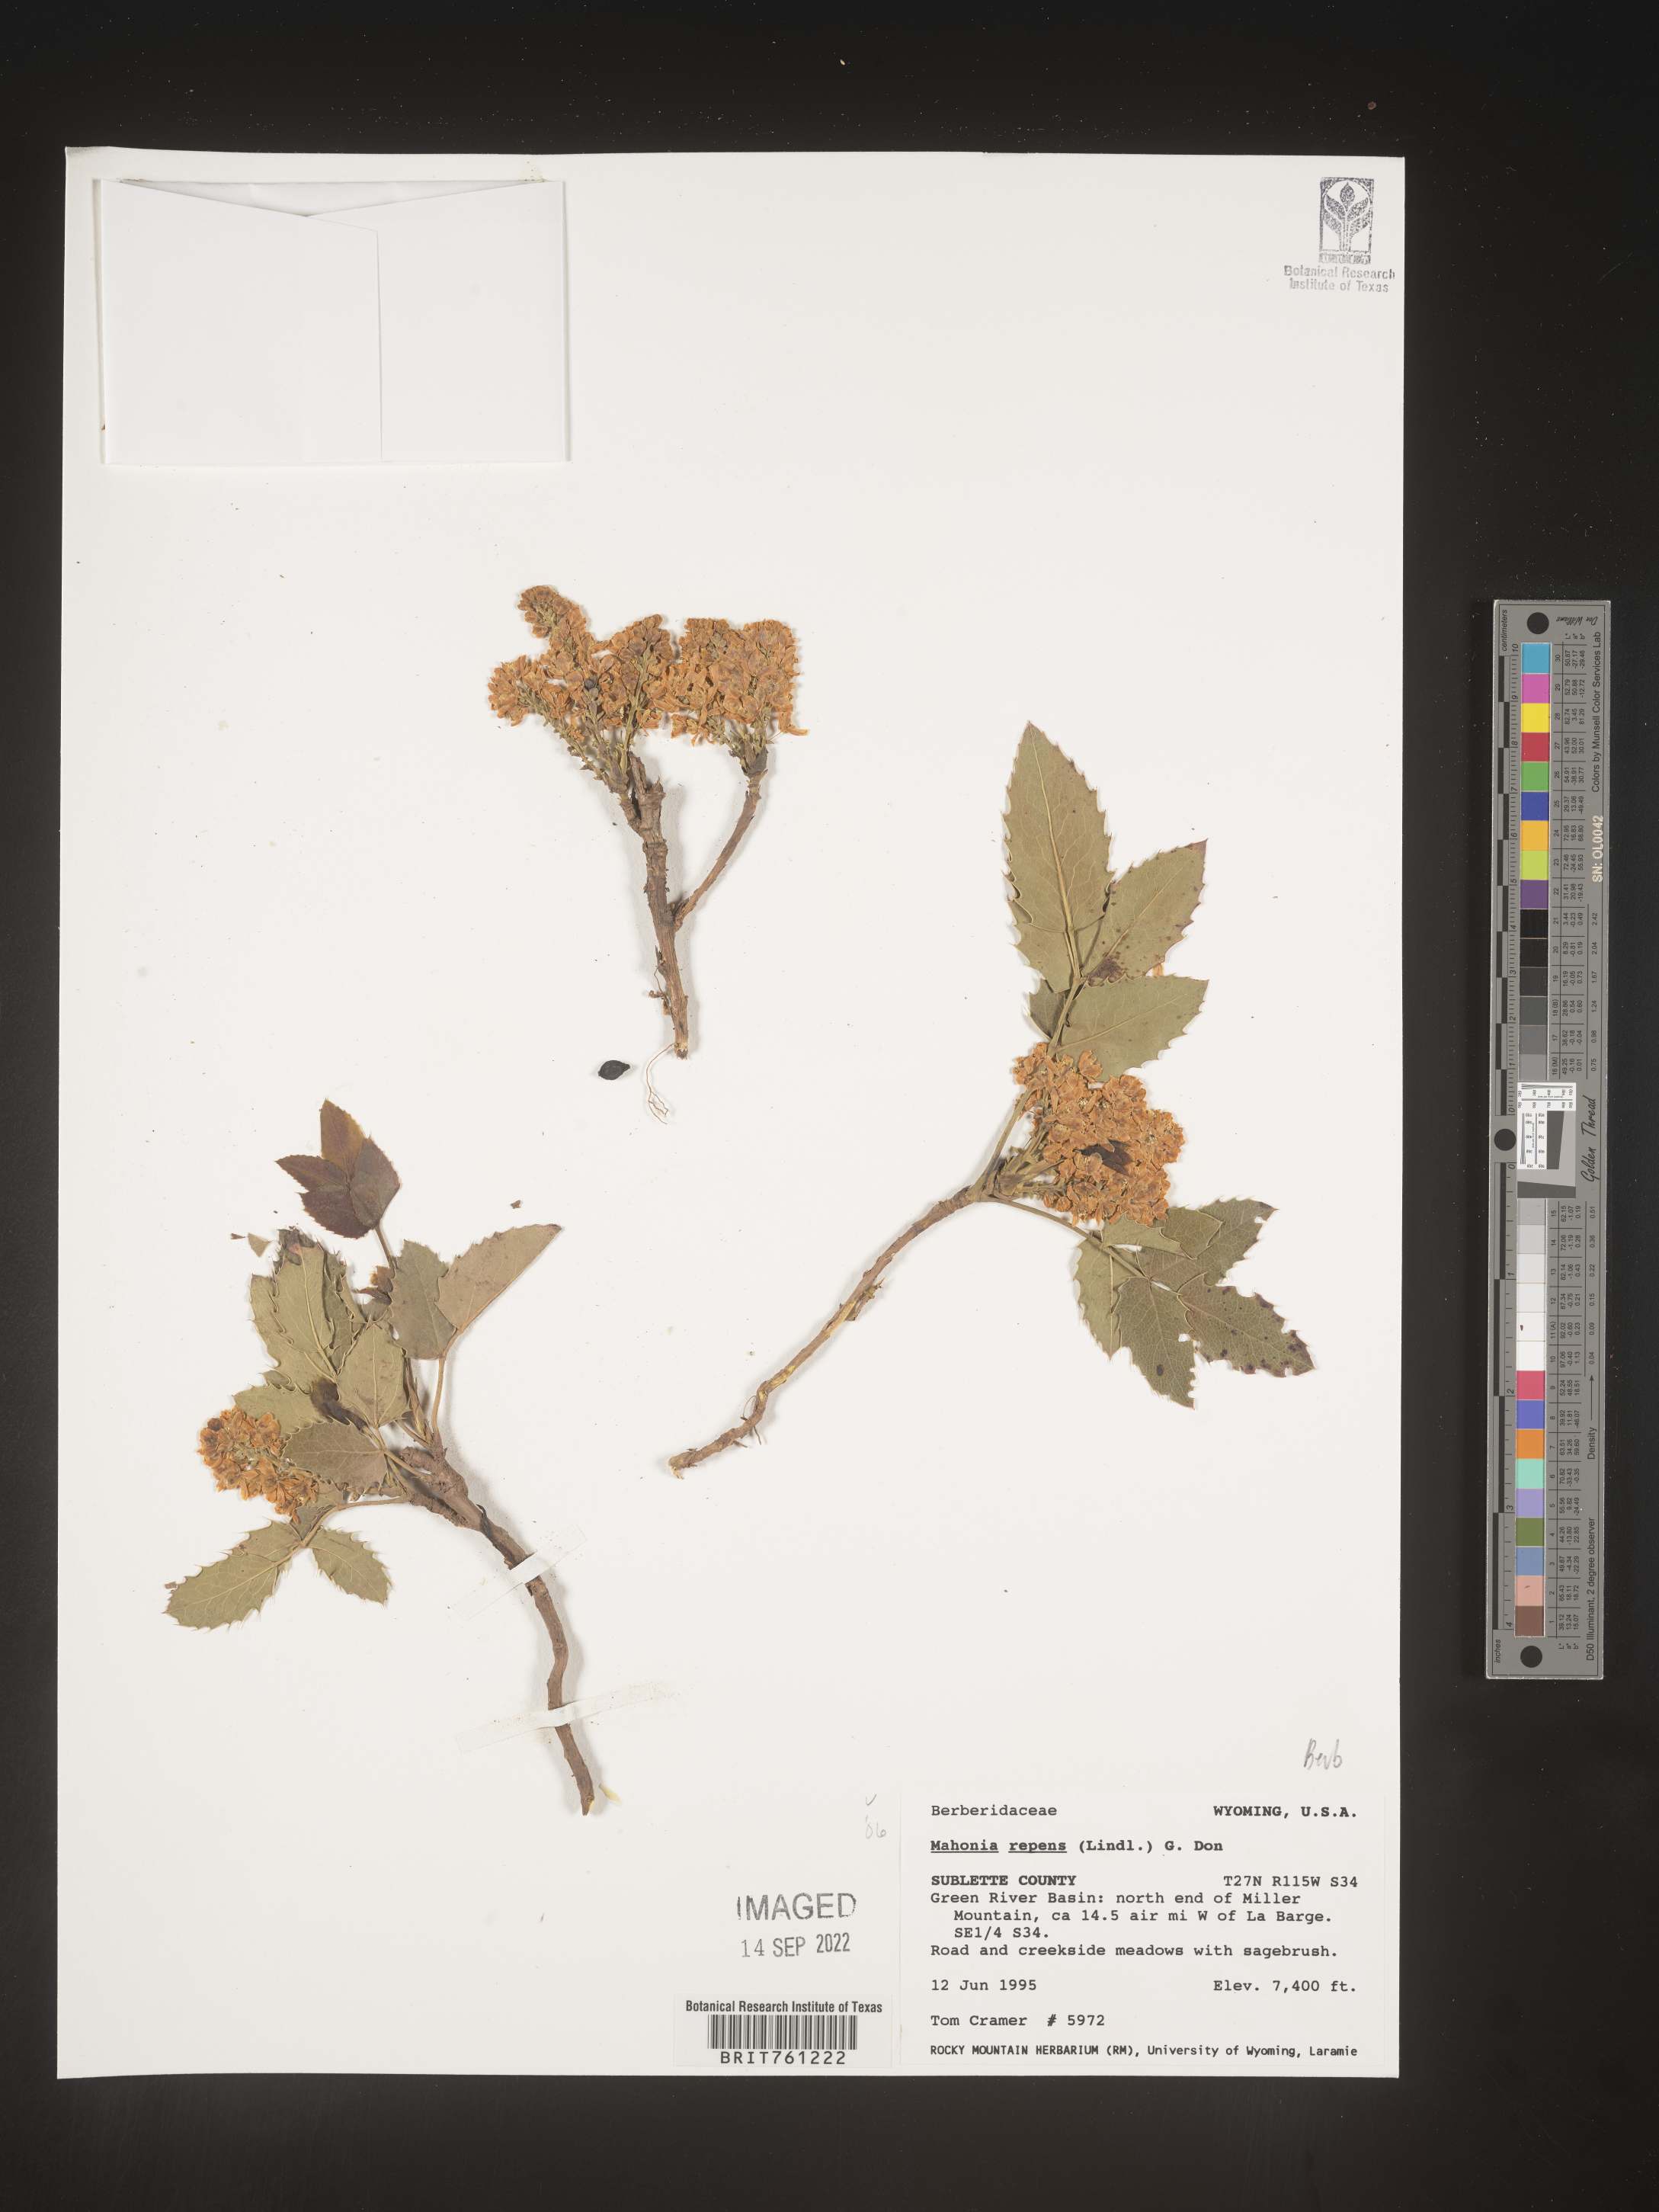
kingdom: Plantae
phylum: Tracheophyta
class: Magnoliopsida
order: Ranunculales
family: Berberidaceae
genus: Mahonia
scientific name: Mahonia repens
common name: Creeping oregon-grape
